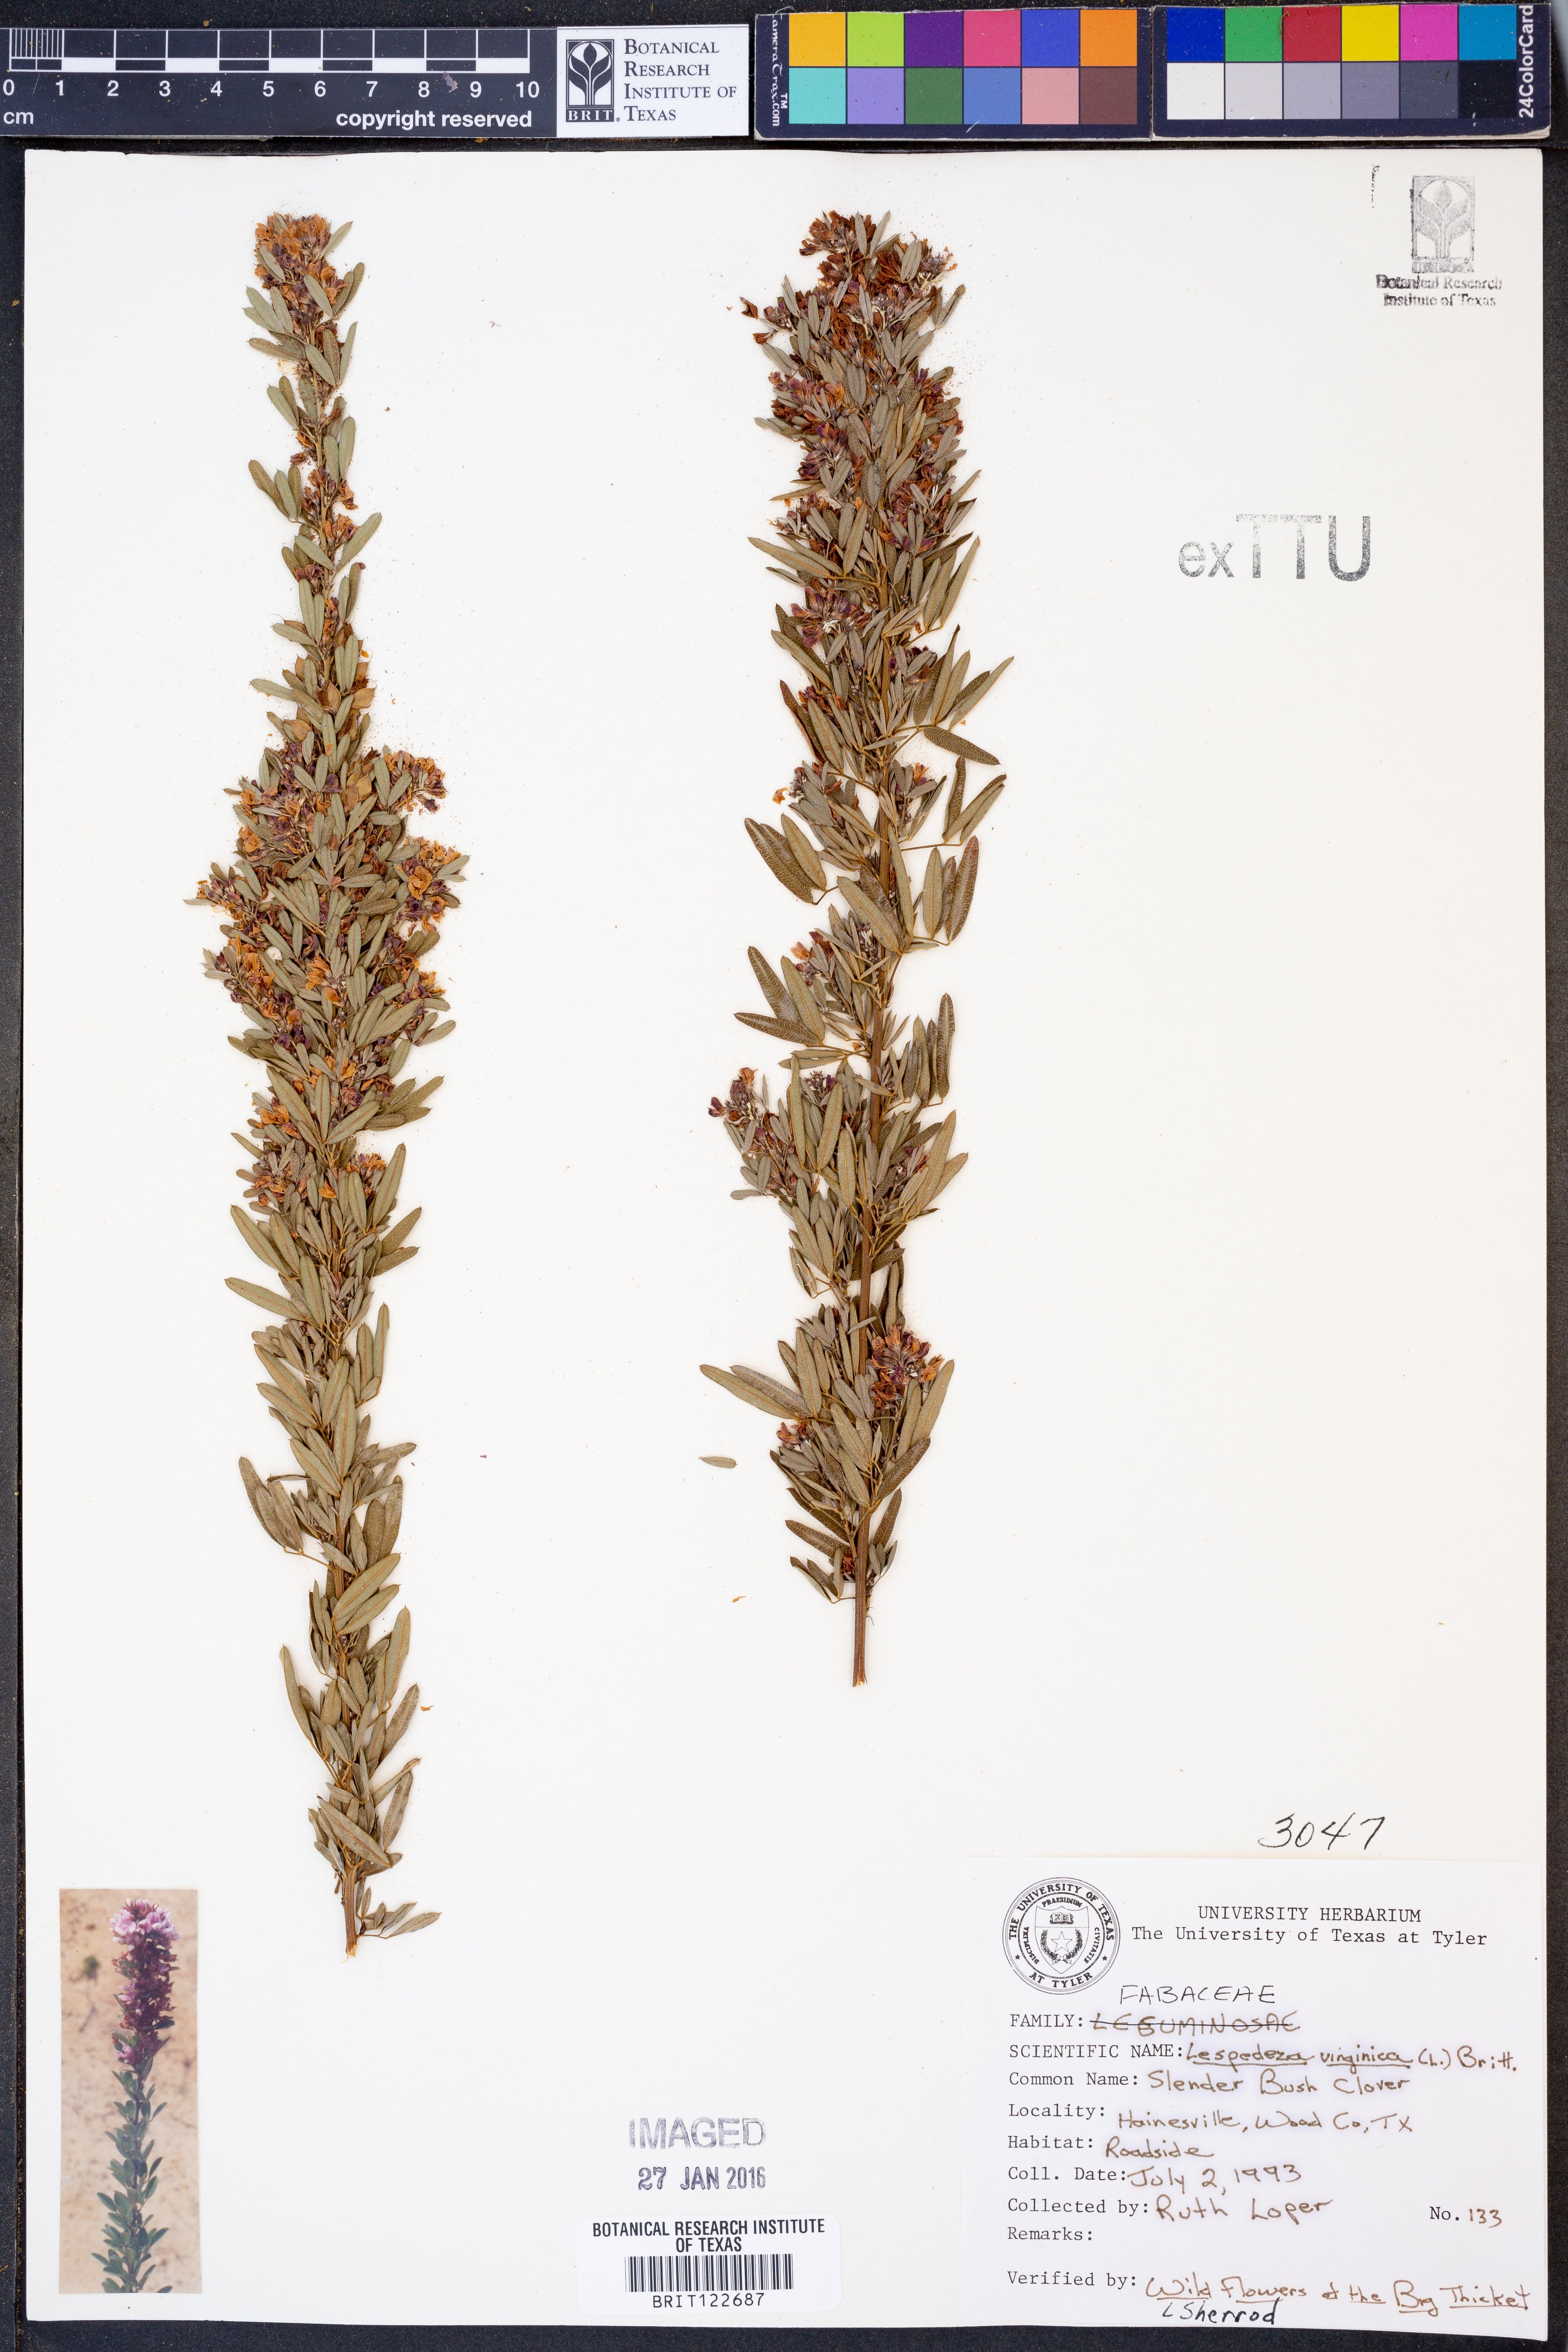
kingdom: Plantae
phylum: Tracheophyta
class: Magnoliopsida
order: Fabales
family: Fabaceae
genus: Lespedeza
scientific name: Lespedeza virginica
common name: Slender bush-clover
